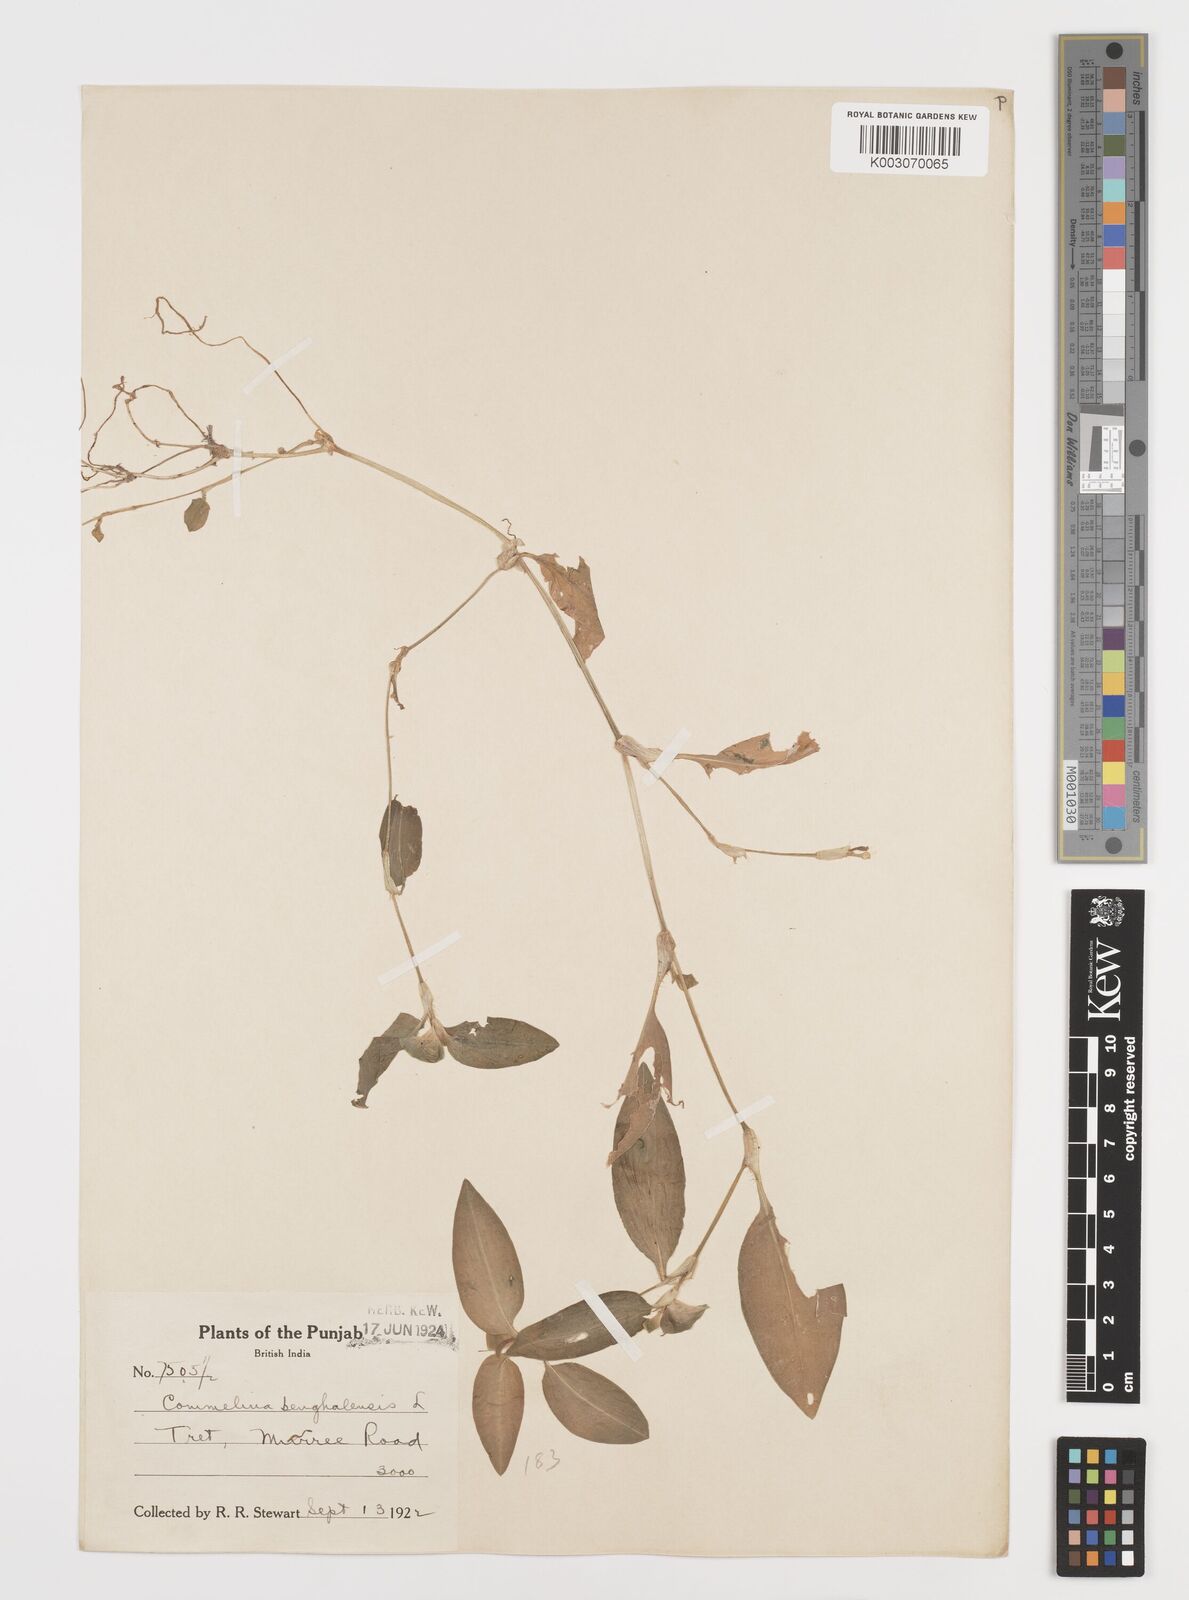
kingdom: Plantae
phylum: Tracheophyta
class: Liliopsida
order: Commelinales
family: Commelinaceae
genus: Commelina
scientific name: Commelina benghalensis
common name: Jio
